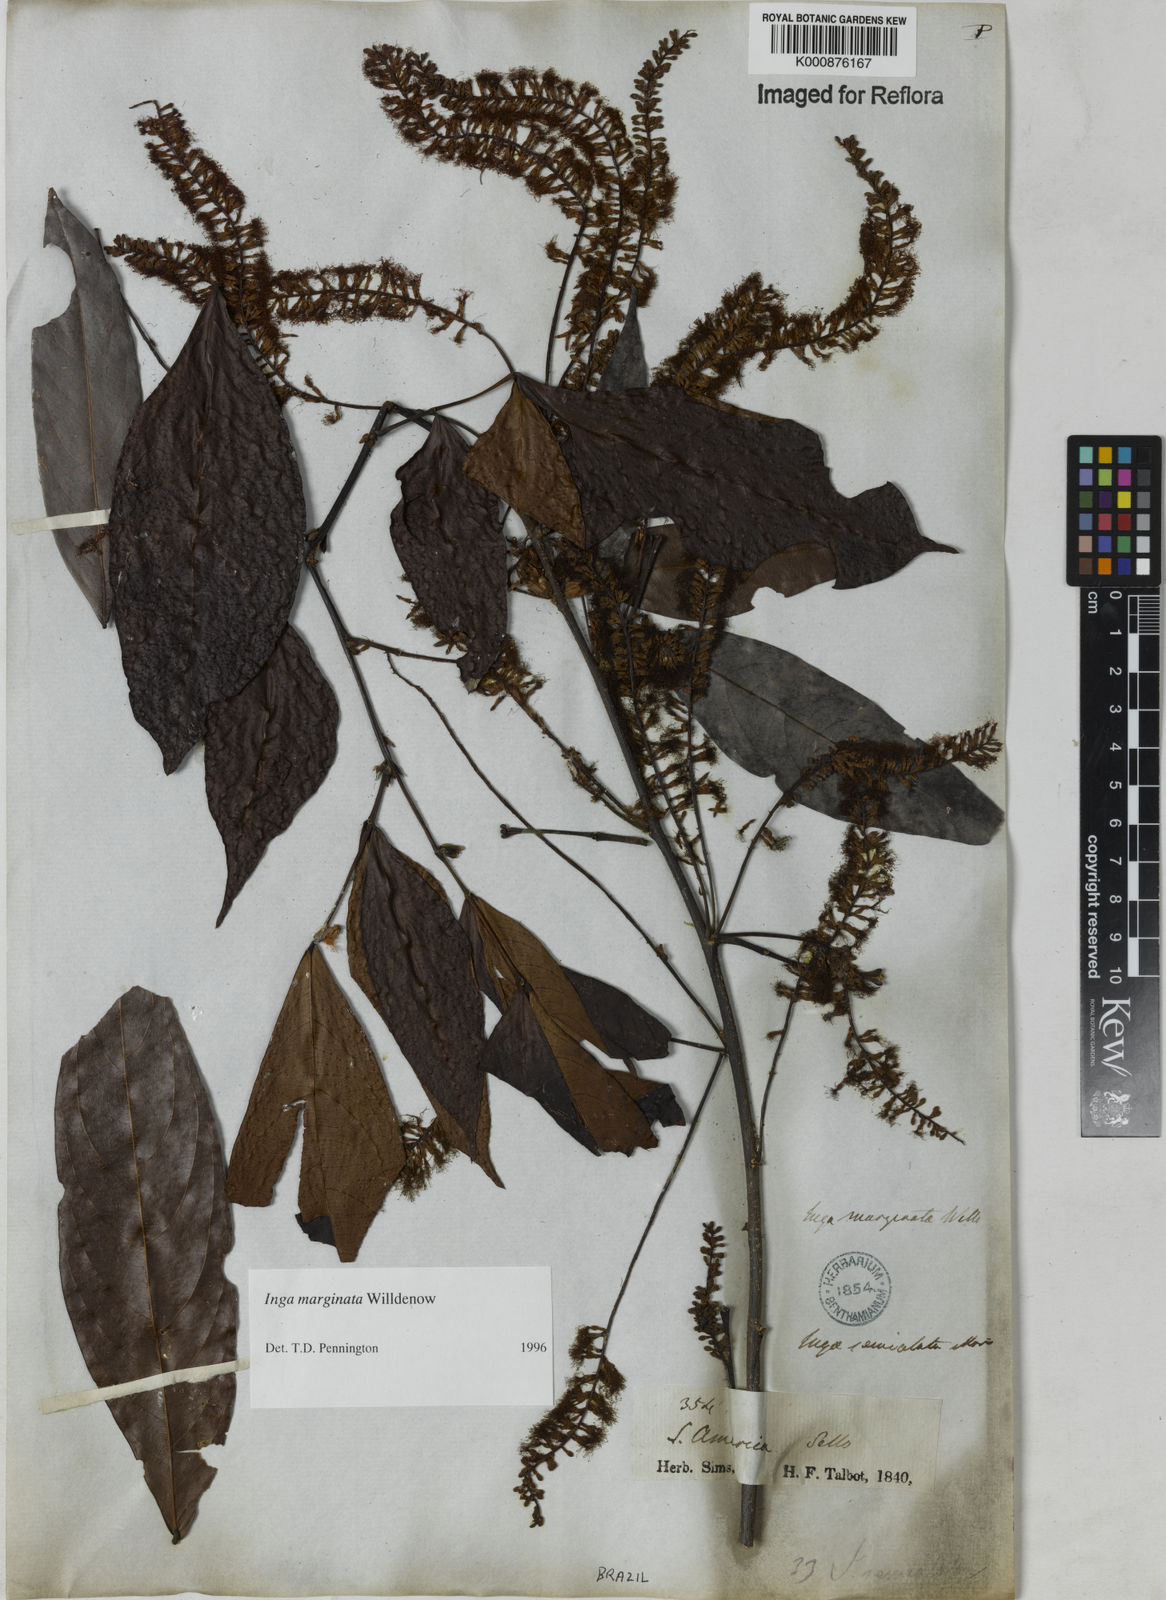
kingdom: Plantae
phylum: Tracheophyta
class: Magnoliopsida
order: Fabales
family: Fabaceae
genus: Inga
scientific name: Inga marginata
